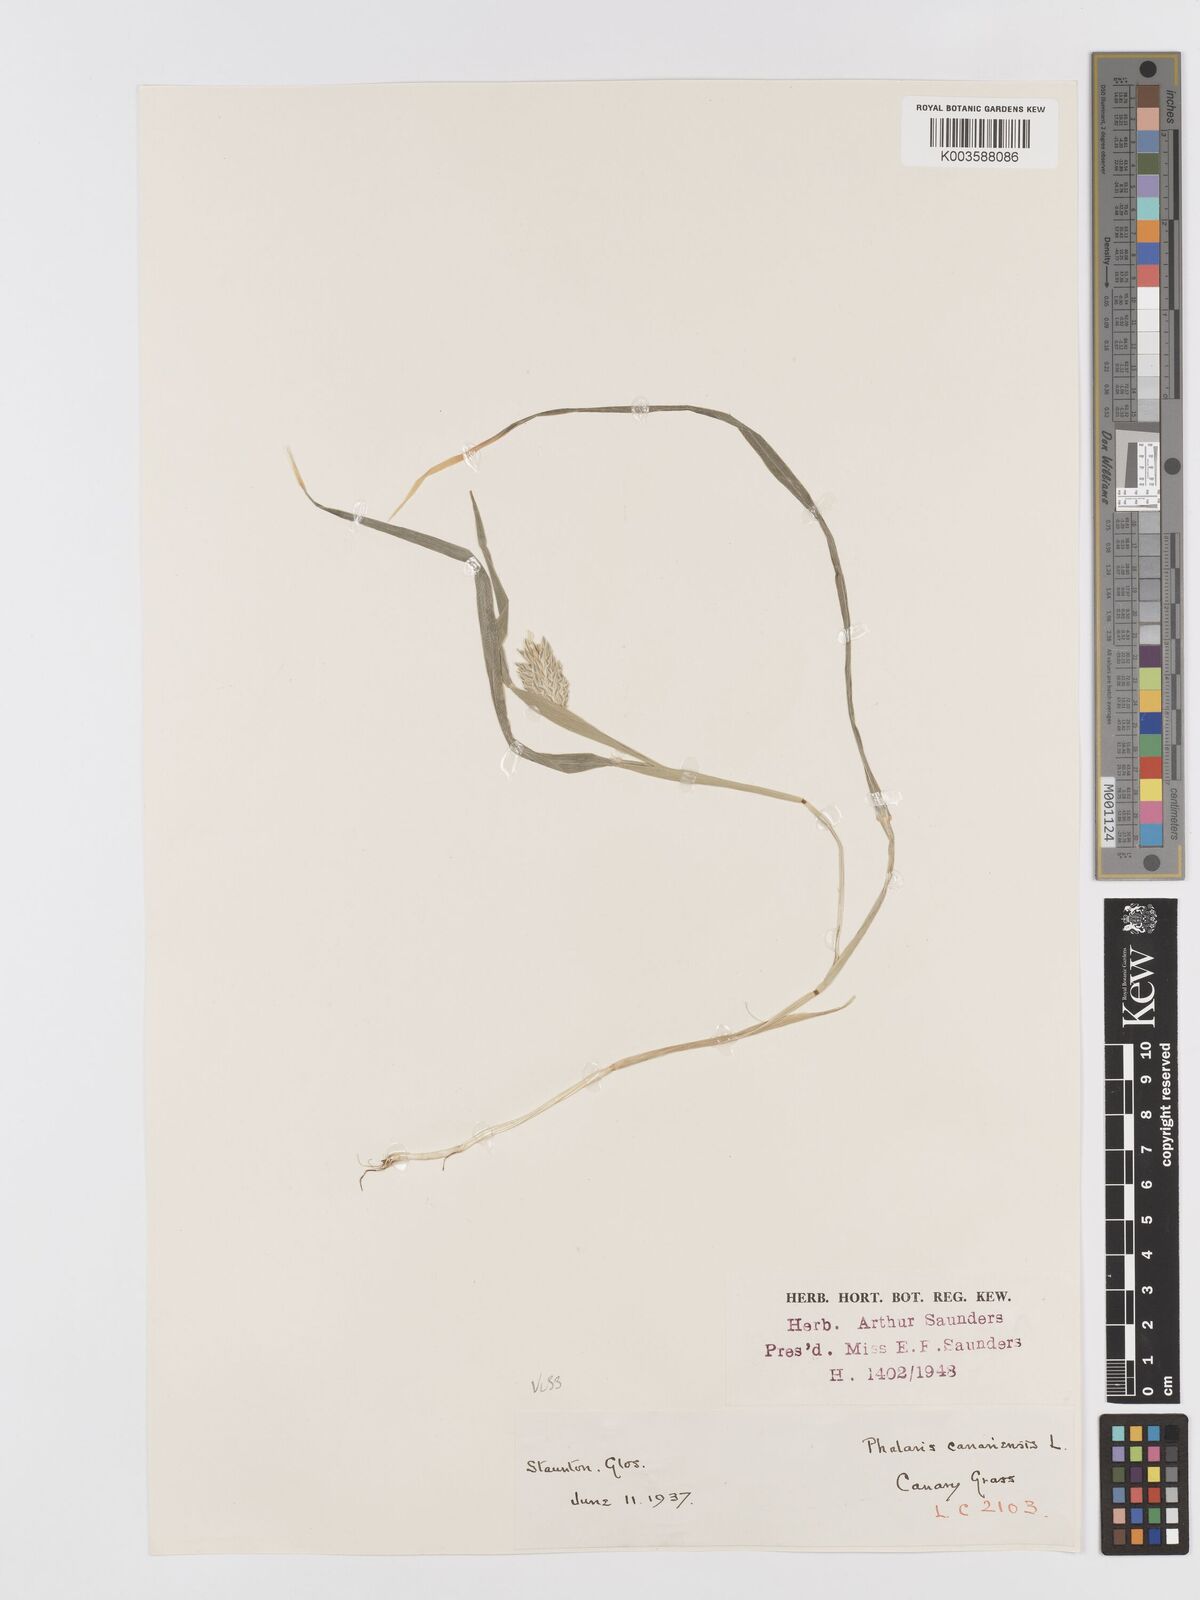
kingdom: Plantae
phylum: Tracheophyta
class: Liliopsida
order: Poales
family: Poaceae
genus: Phalaris
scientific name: Phalaris canariensis
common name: Annual canarygrass
